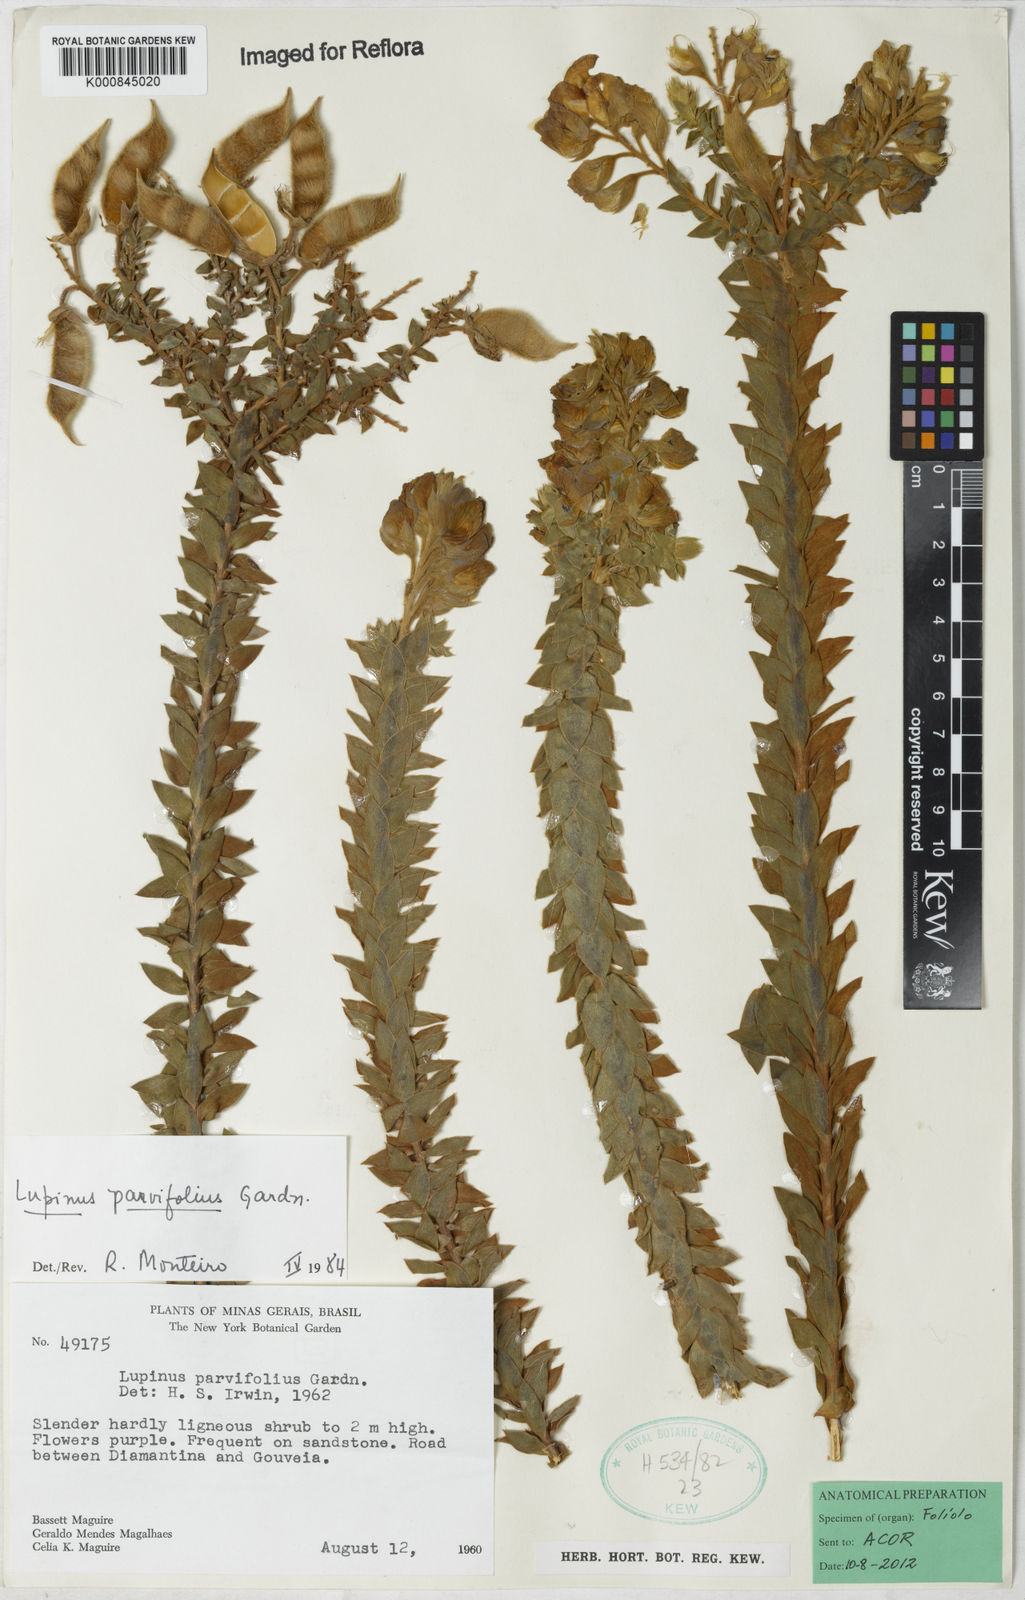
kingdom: Plantae
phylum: Tracheophyta
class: Magnoliopsida
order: Fabales
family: Fabaceae
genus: Lupinus
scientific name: Lupinus parvifolius
